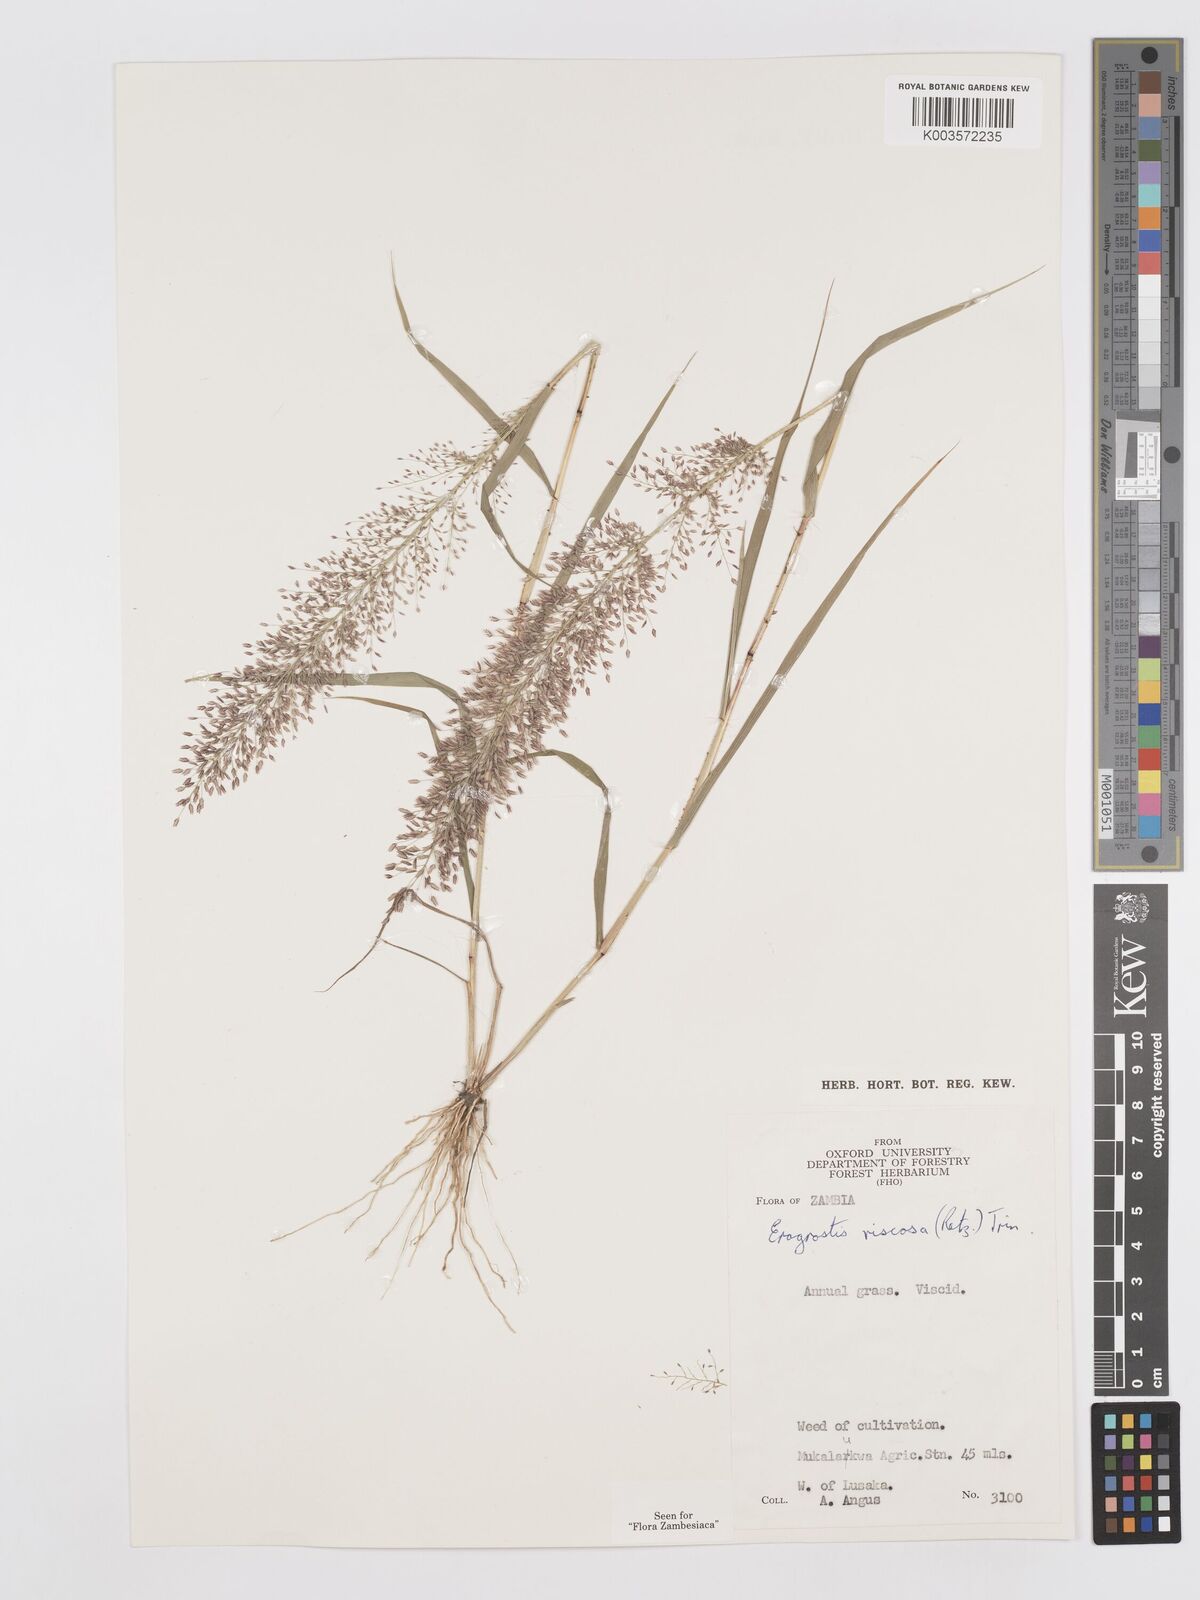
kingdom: Plantae
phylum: Tracheophyta
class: Liliopsida
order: Poales
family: Poaceae
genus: Eragrostis
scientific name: Eragrostis
